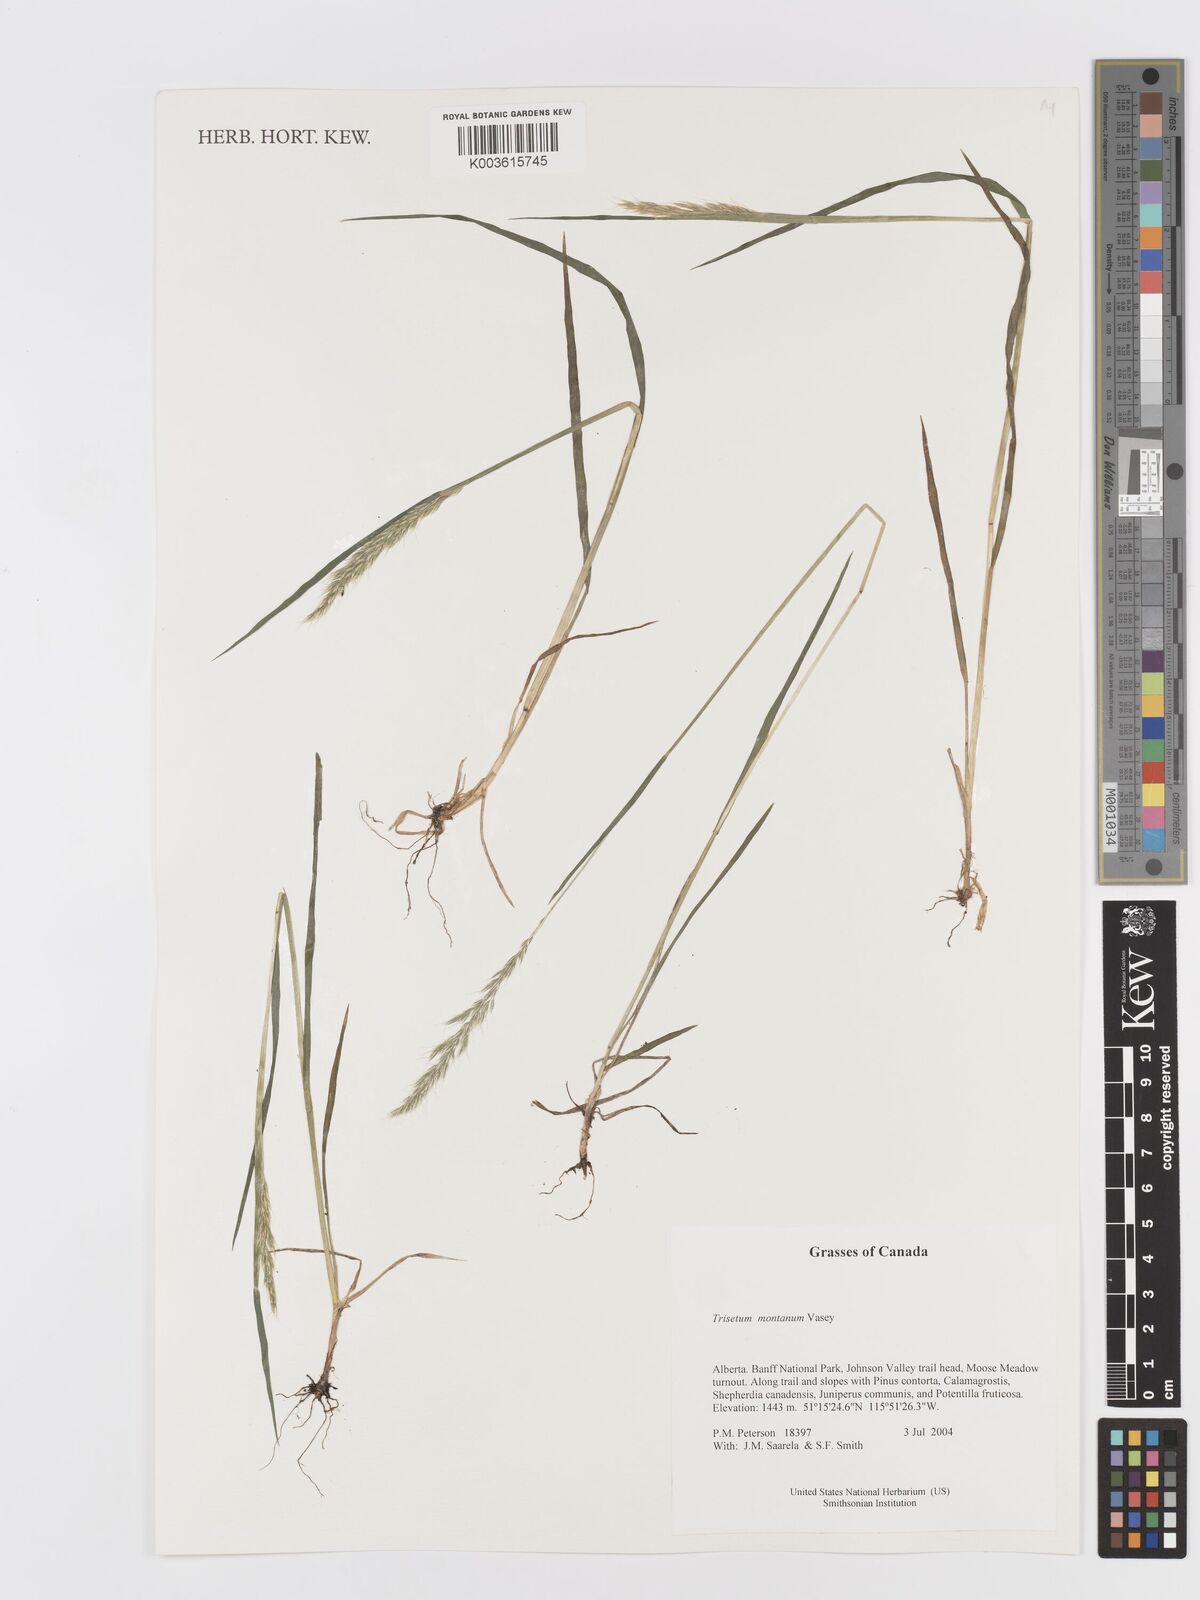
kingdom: Plantae
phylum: Tracheophyta
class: Liliopsida
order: Poales
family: Poaceae
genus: Koeleria
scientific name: Koeleria vaseyi
